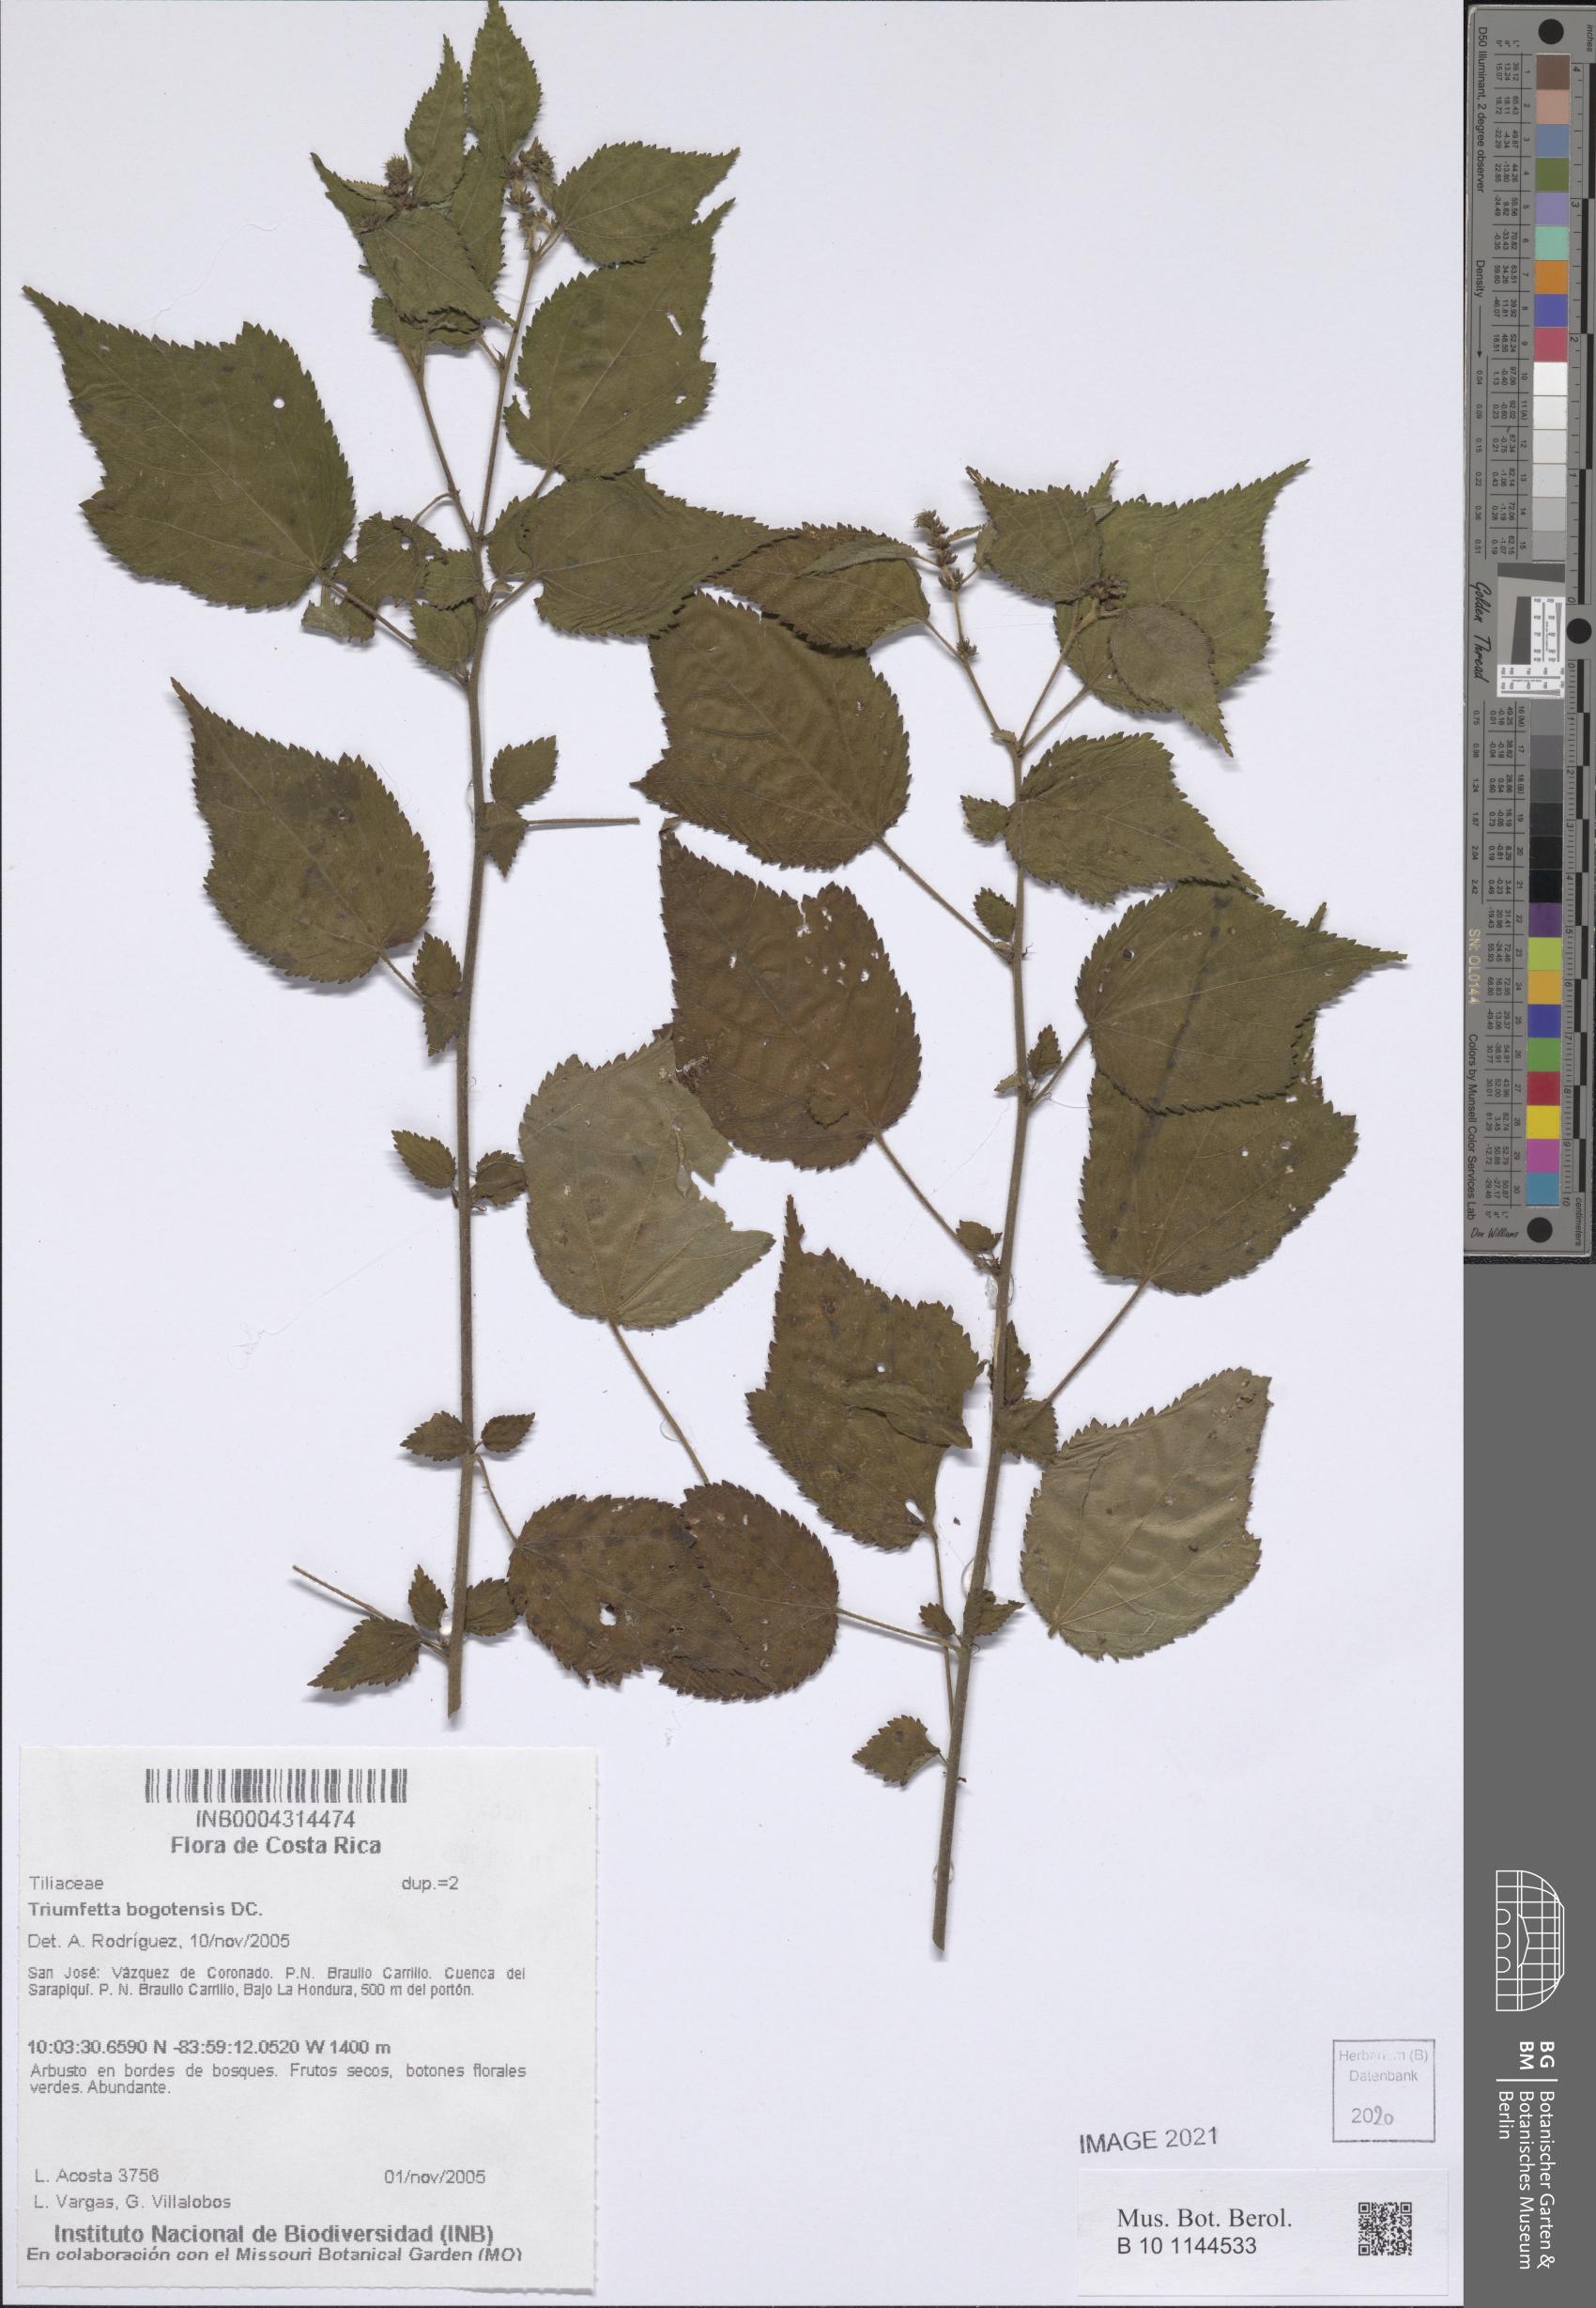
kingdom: Plantae
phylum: Tracheophyta
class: Magnoliopsida
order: Malvales
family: Malvaceae
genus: Triumfetta
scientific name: Triumfetta bogotensis
